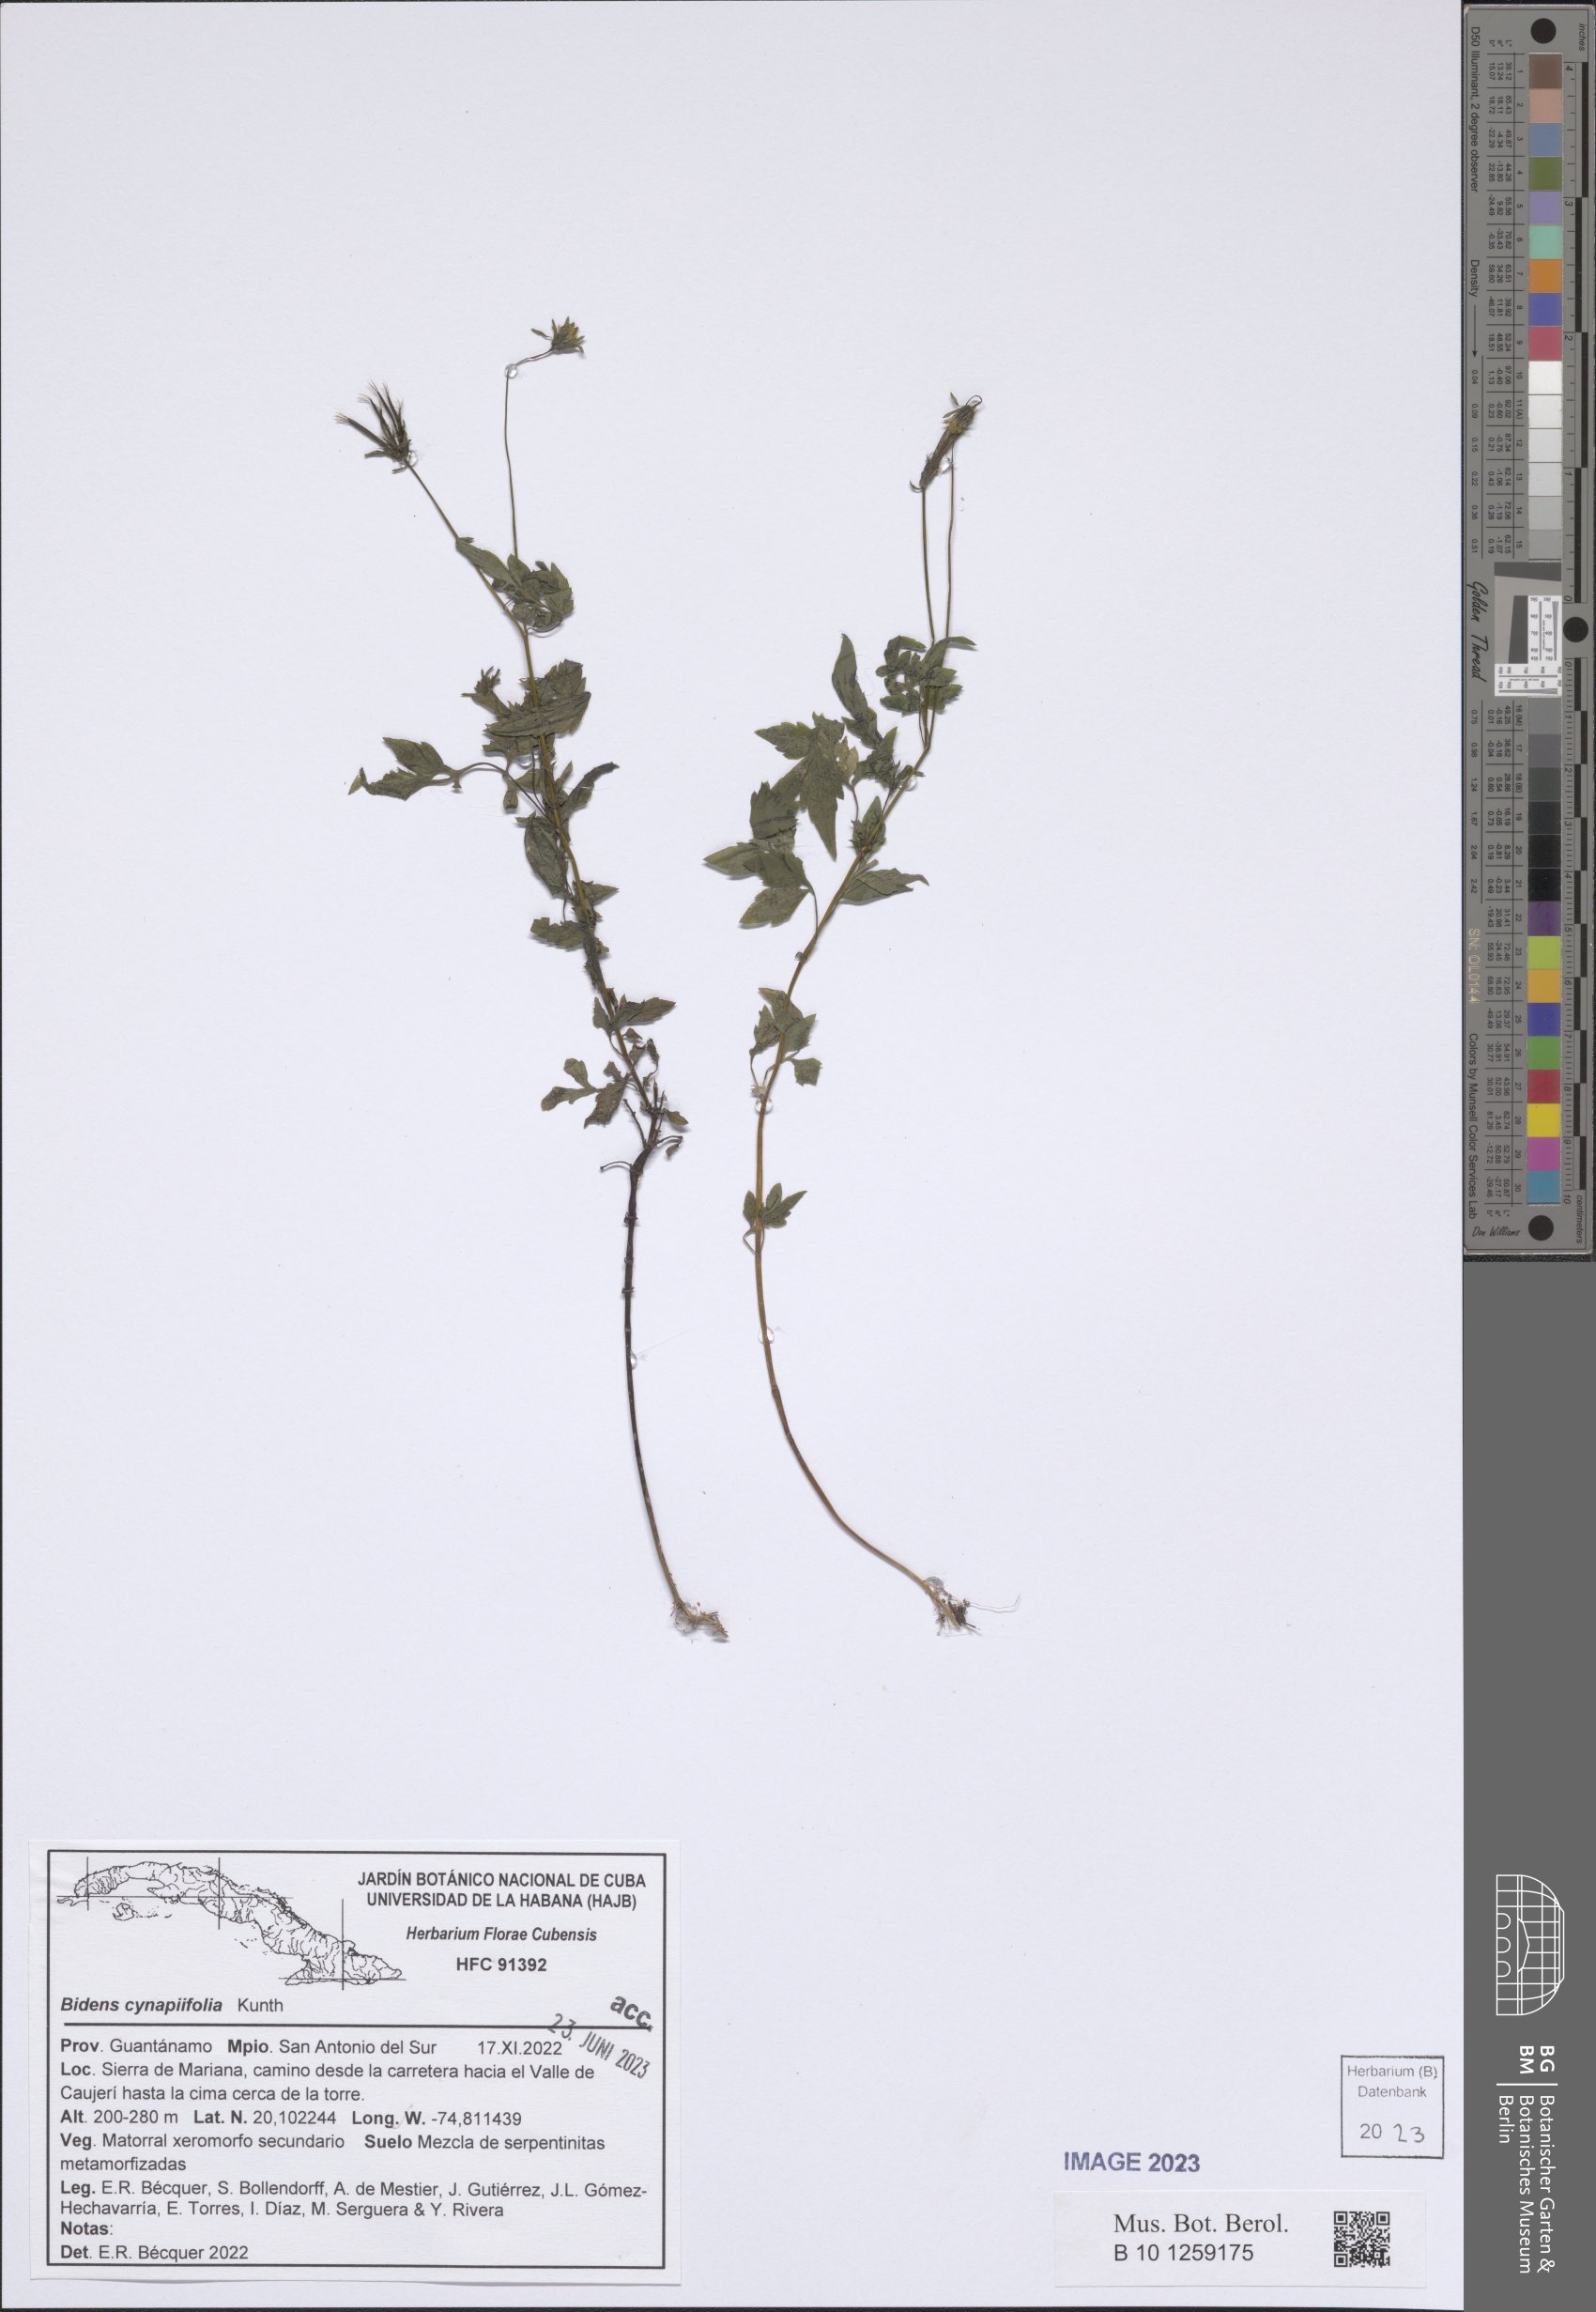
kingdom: Plantae
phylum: Tracheophyta
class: Magnoliopsida
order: Asterales
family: Asteraceae
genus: Bidens
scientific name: Bidens cynapiifolia
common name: Beggar's tick
